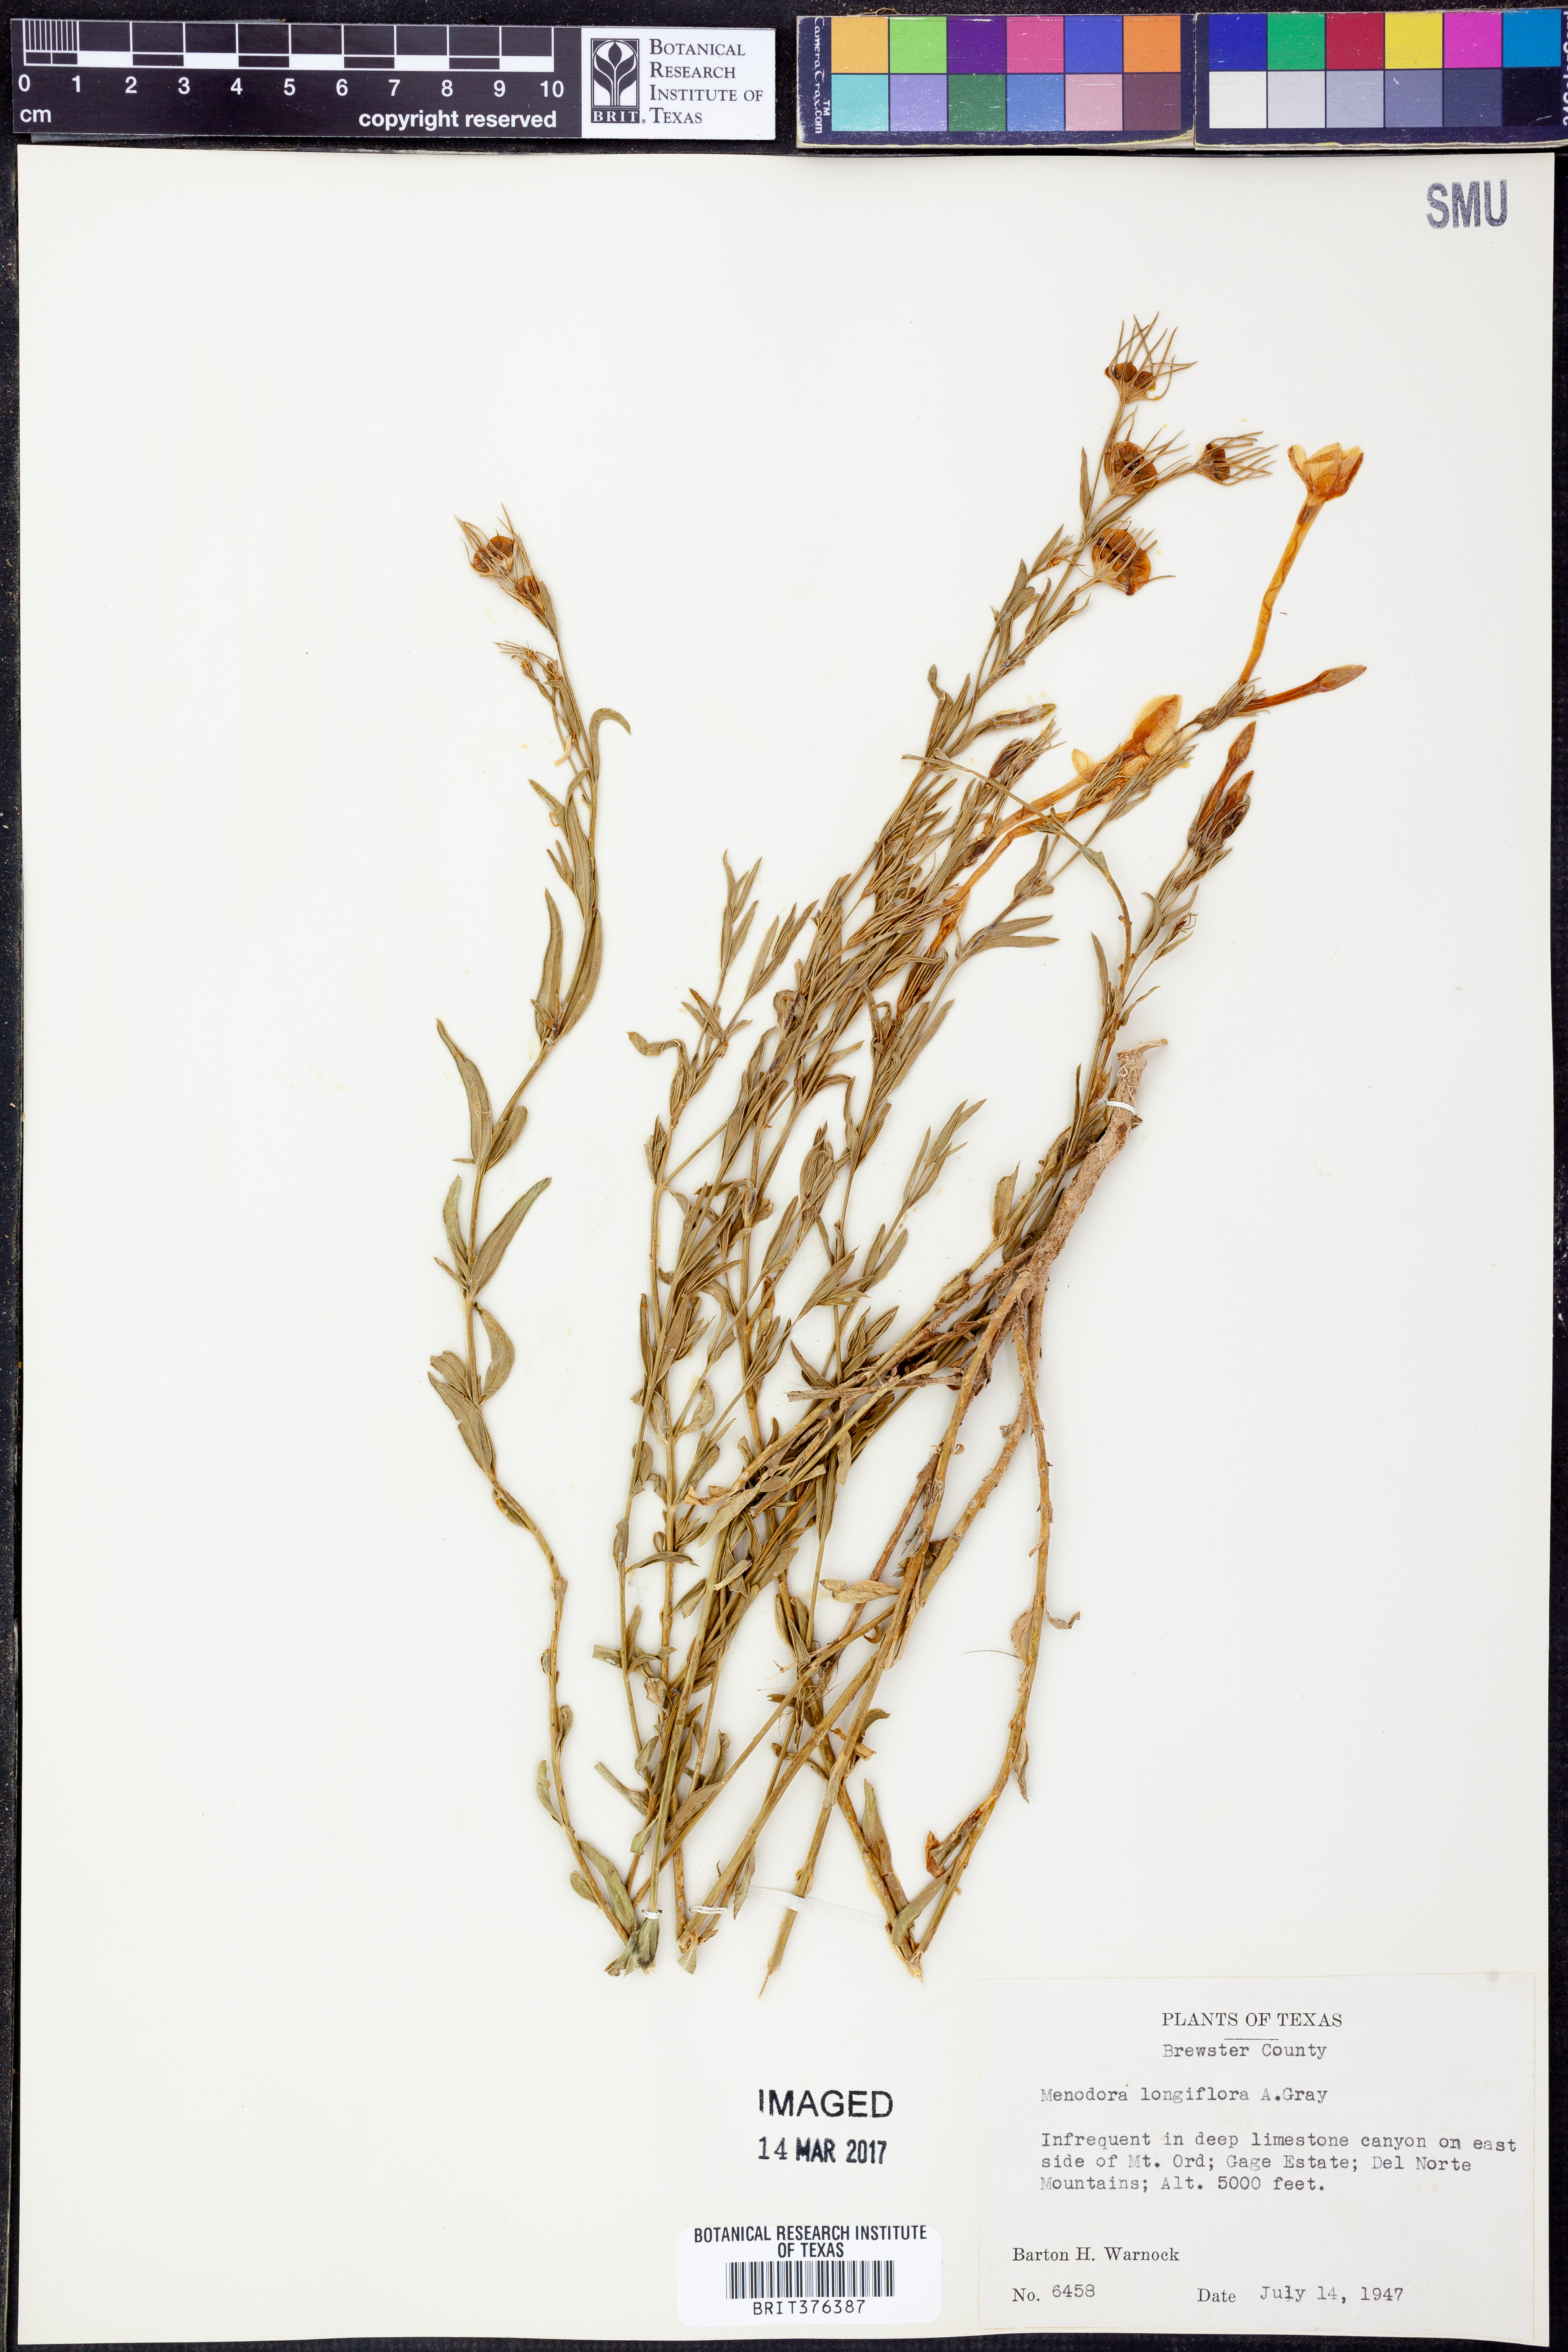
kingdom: Plantae
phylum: Tracheophyta
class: Magnoliopsida
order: Lamiales
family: Oleaceae
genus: Menodora
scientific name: Menodora longiflora
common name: Showy menodora
